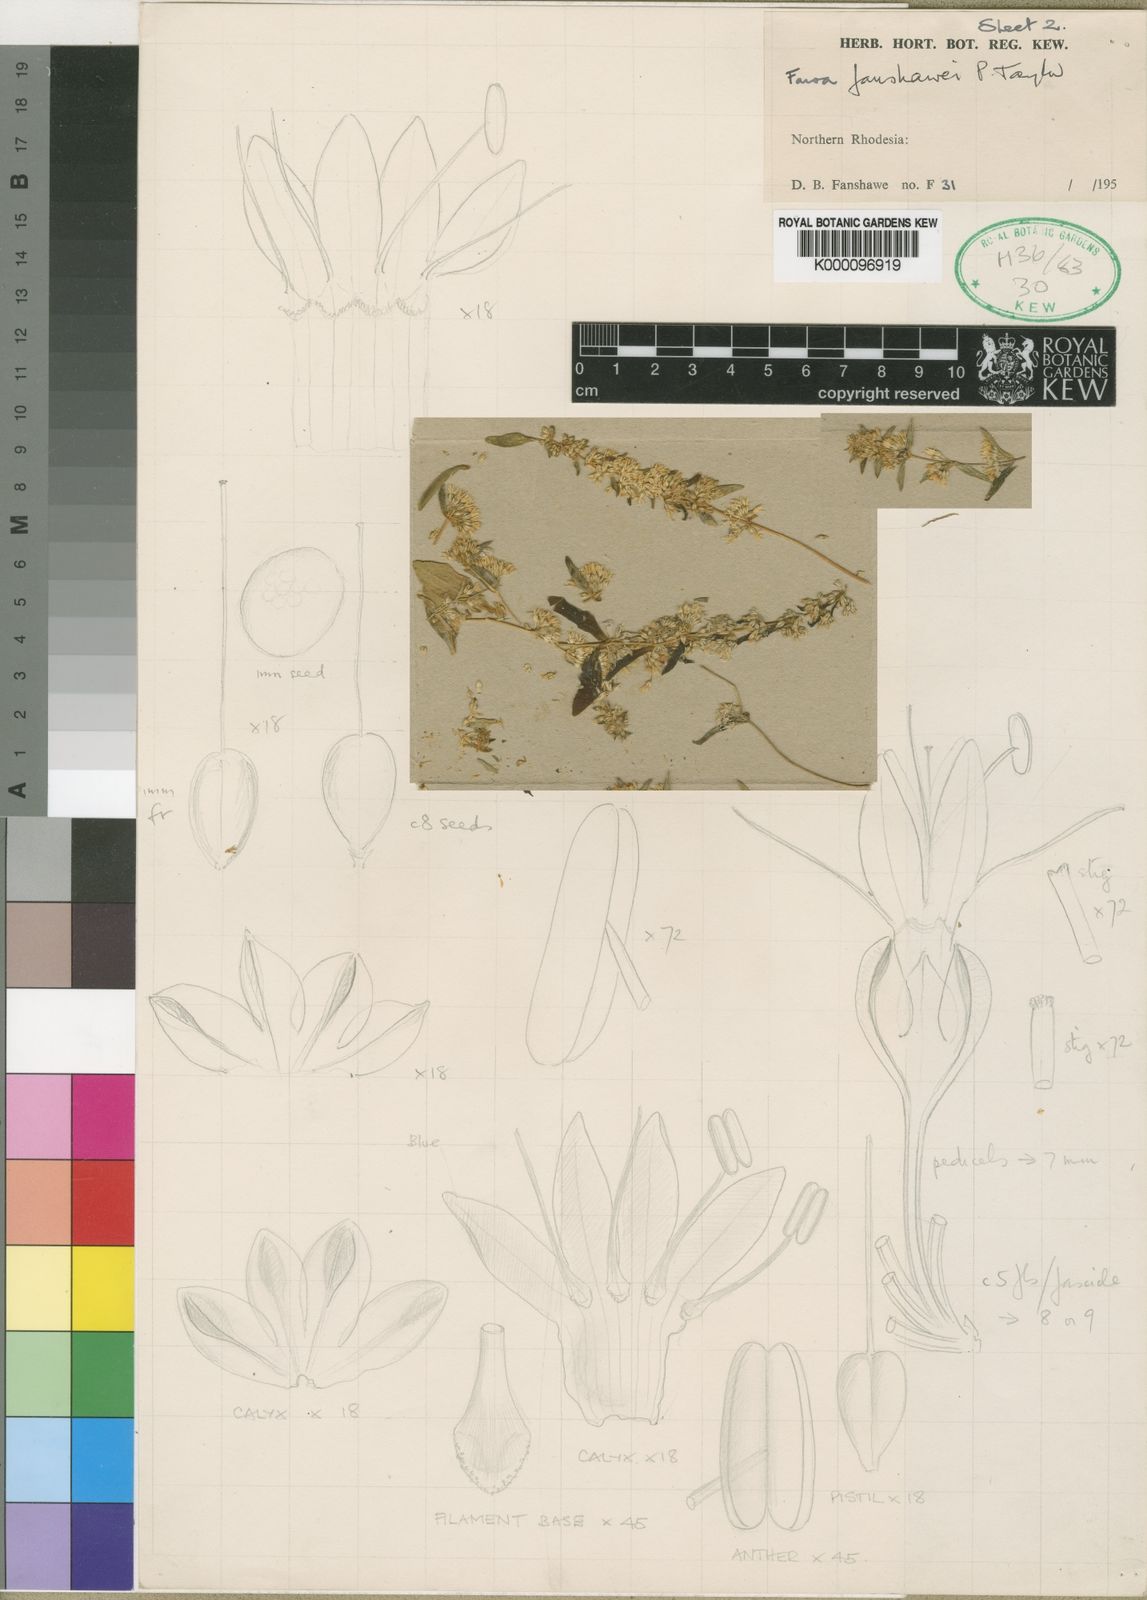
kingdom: Plantae
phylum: Tracheophyta
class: Magnoliopsida
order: Gentianales
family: Gentianaceae
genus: Faroa
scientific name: Faroa fanshawei
